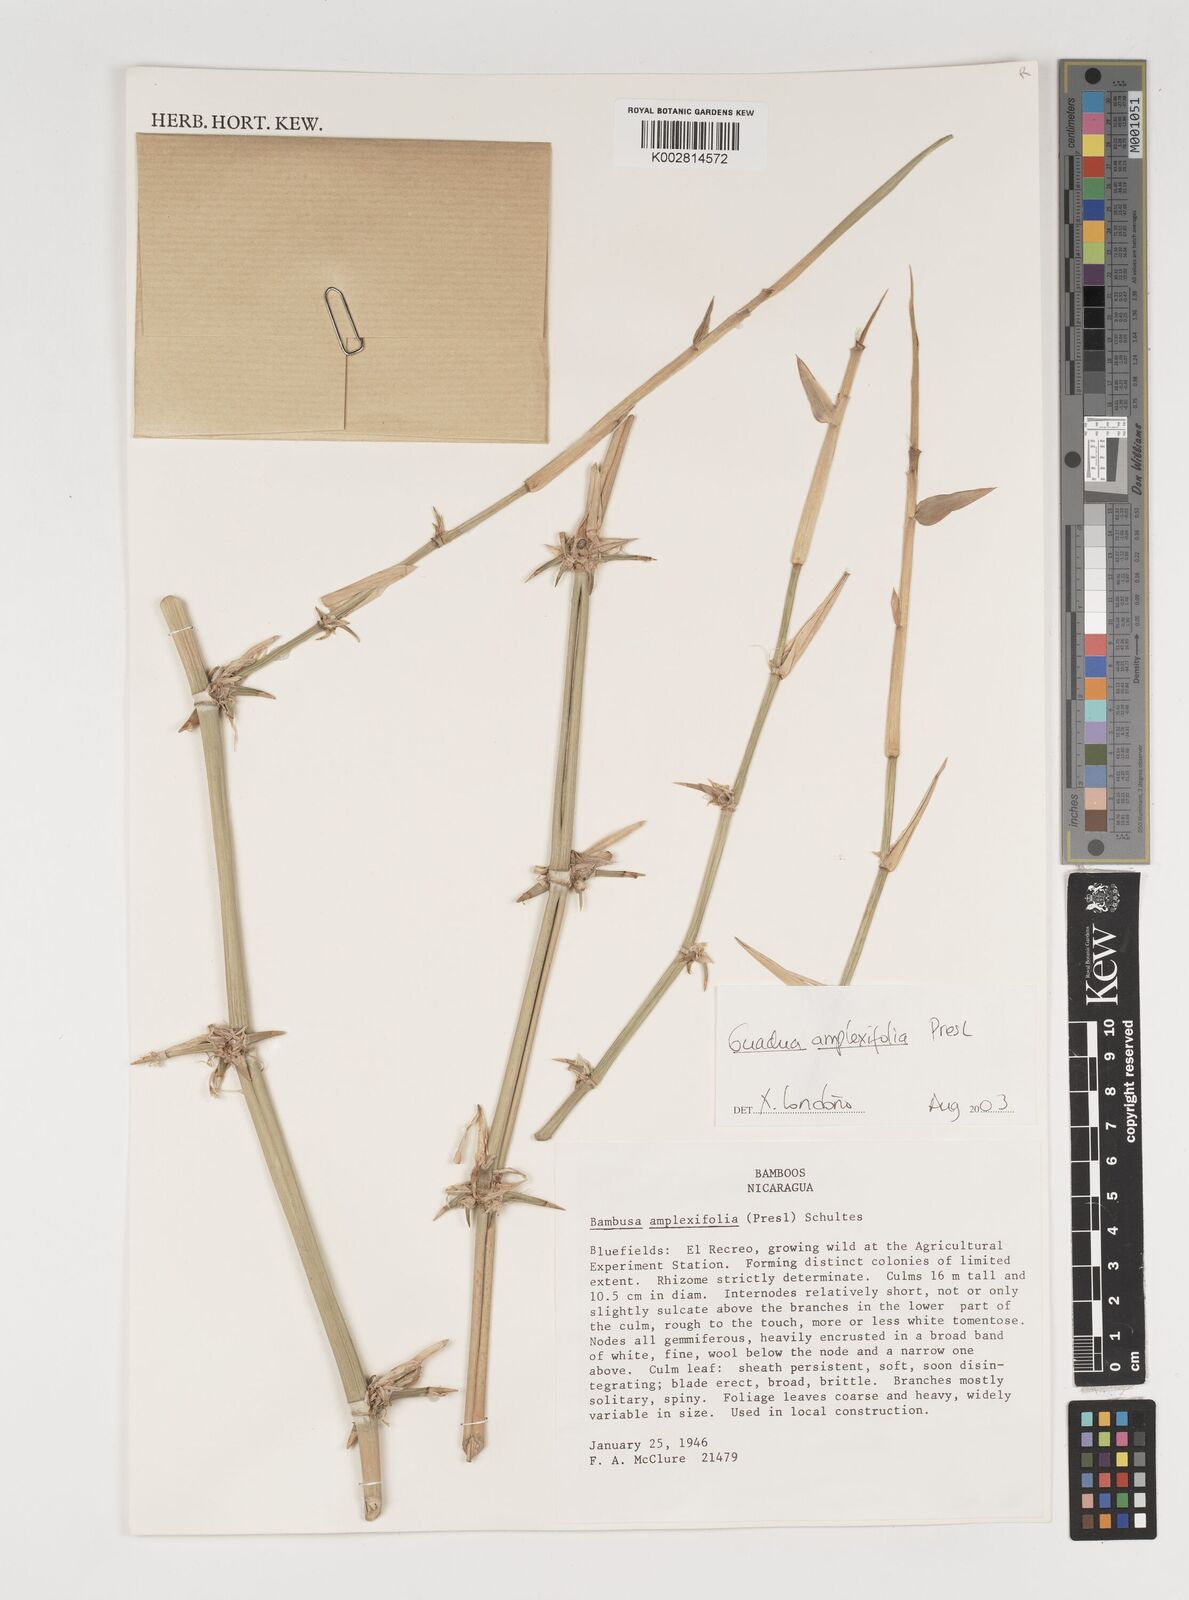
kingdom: Plantae
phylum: Tracheophyta
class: Liliopsida
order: Poales
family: Poaceae
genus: Guadua
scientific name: Guadua amplexifolia
